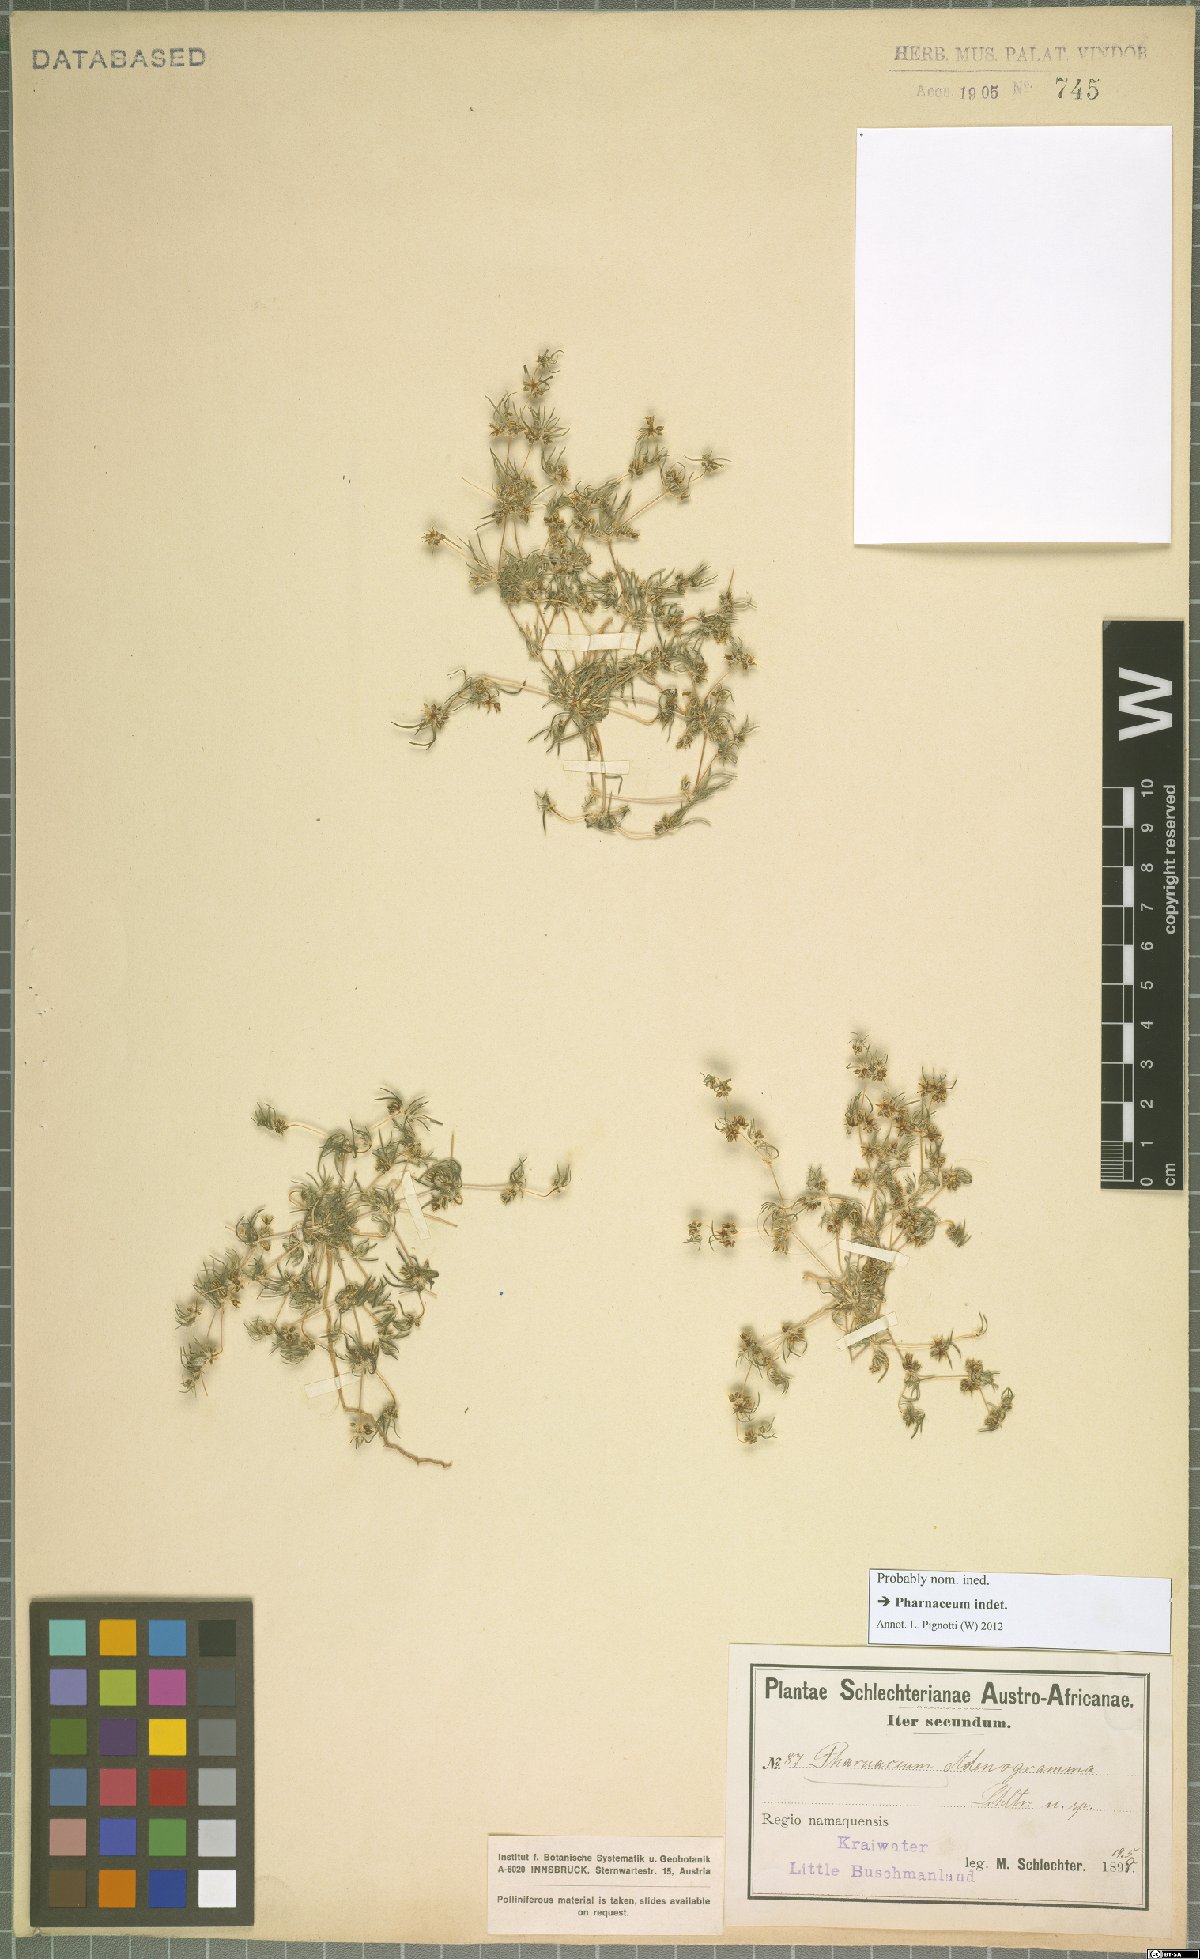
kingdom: Plantae
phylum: Tracheophyta
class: Magnoliopsida
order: Caryophyllales
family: Molluginaceae
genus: Suessenguthiella
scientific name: Suessenguthiella scleranthoides
